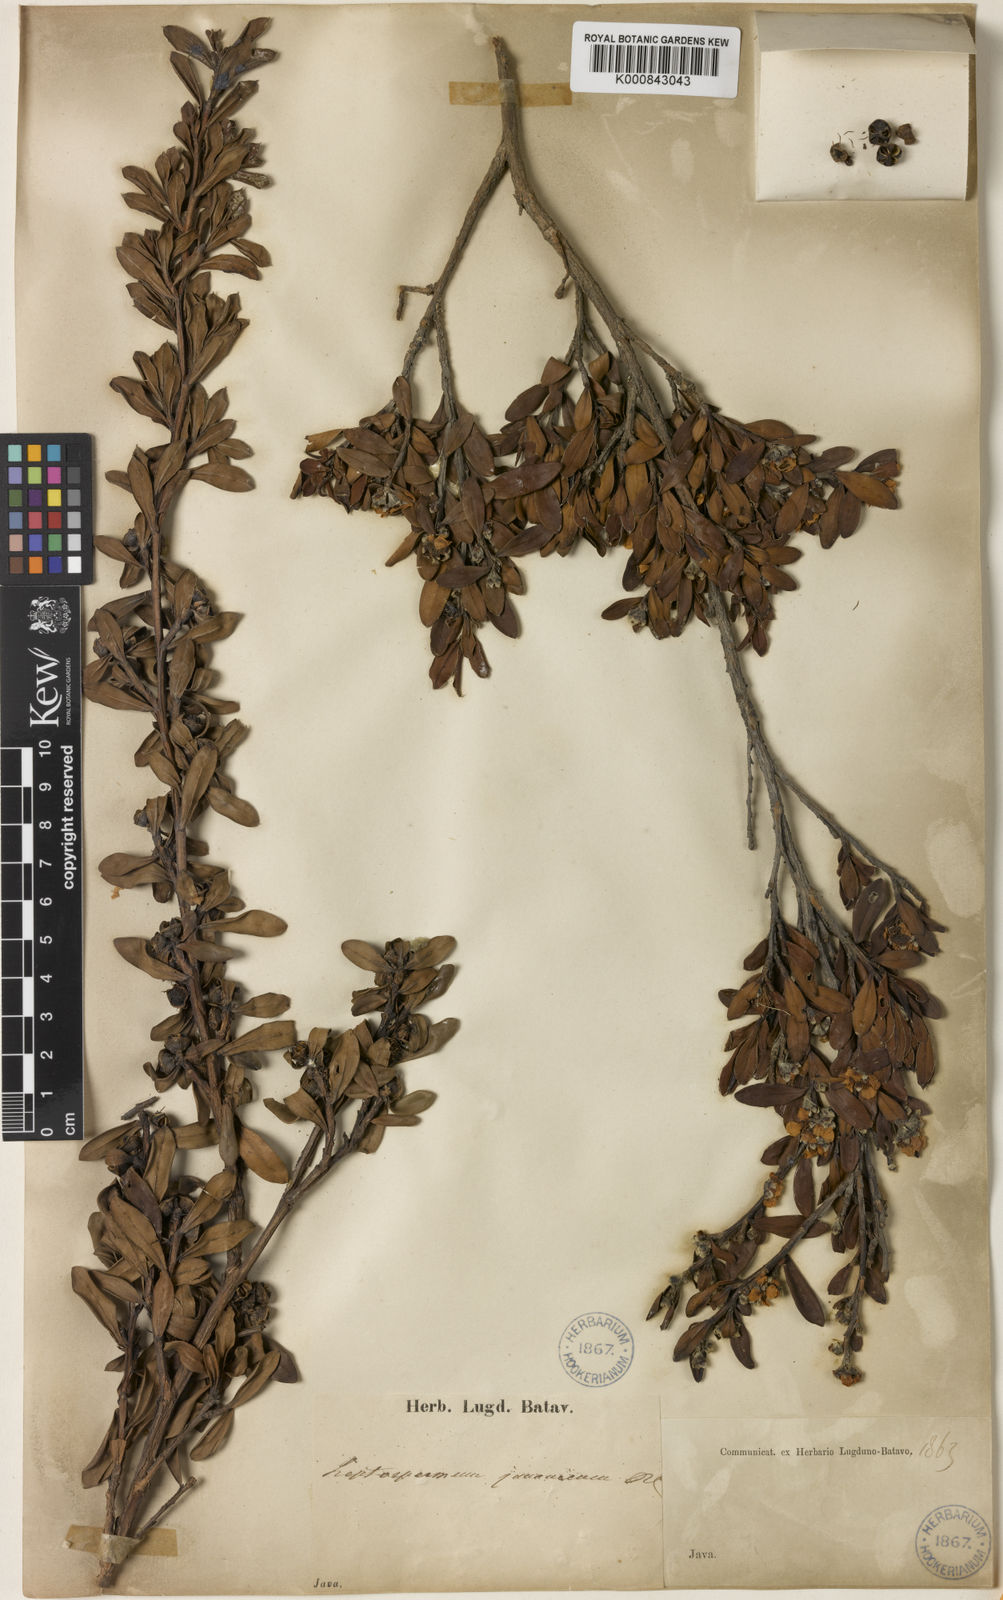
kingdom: Plantae
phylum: Tracheophyta
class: Magnoliopsida
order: Myrtales
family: Myrtaceae
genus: Leptospermum
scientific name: Leptospermum javanicum
